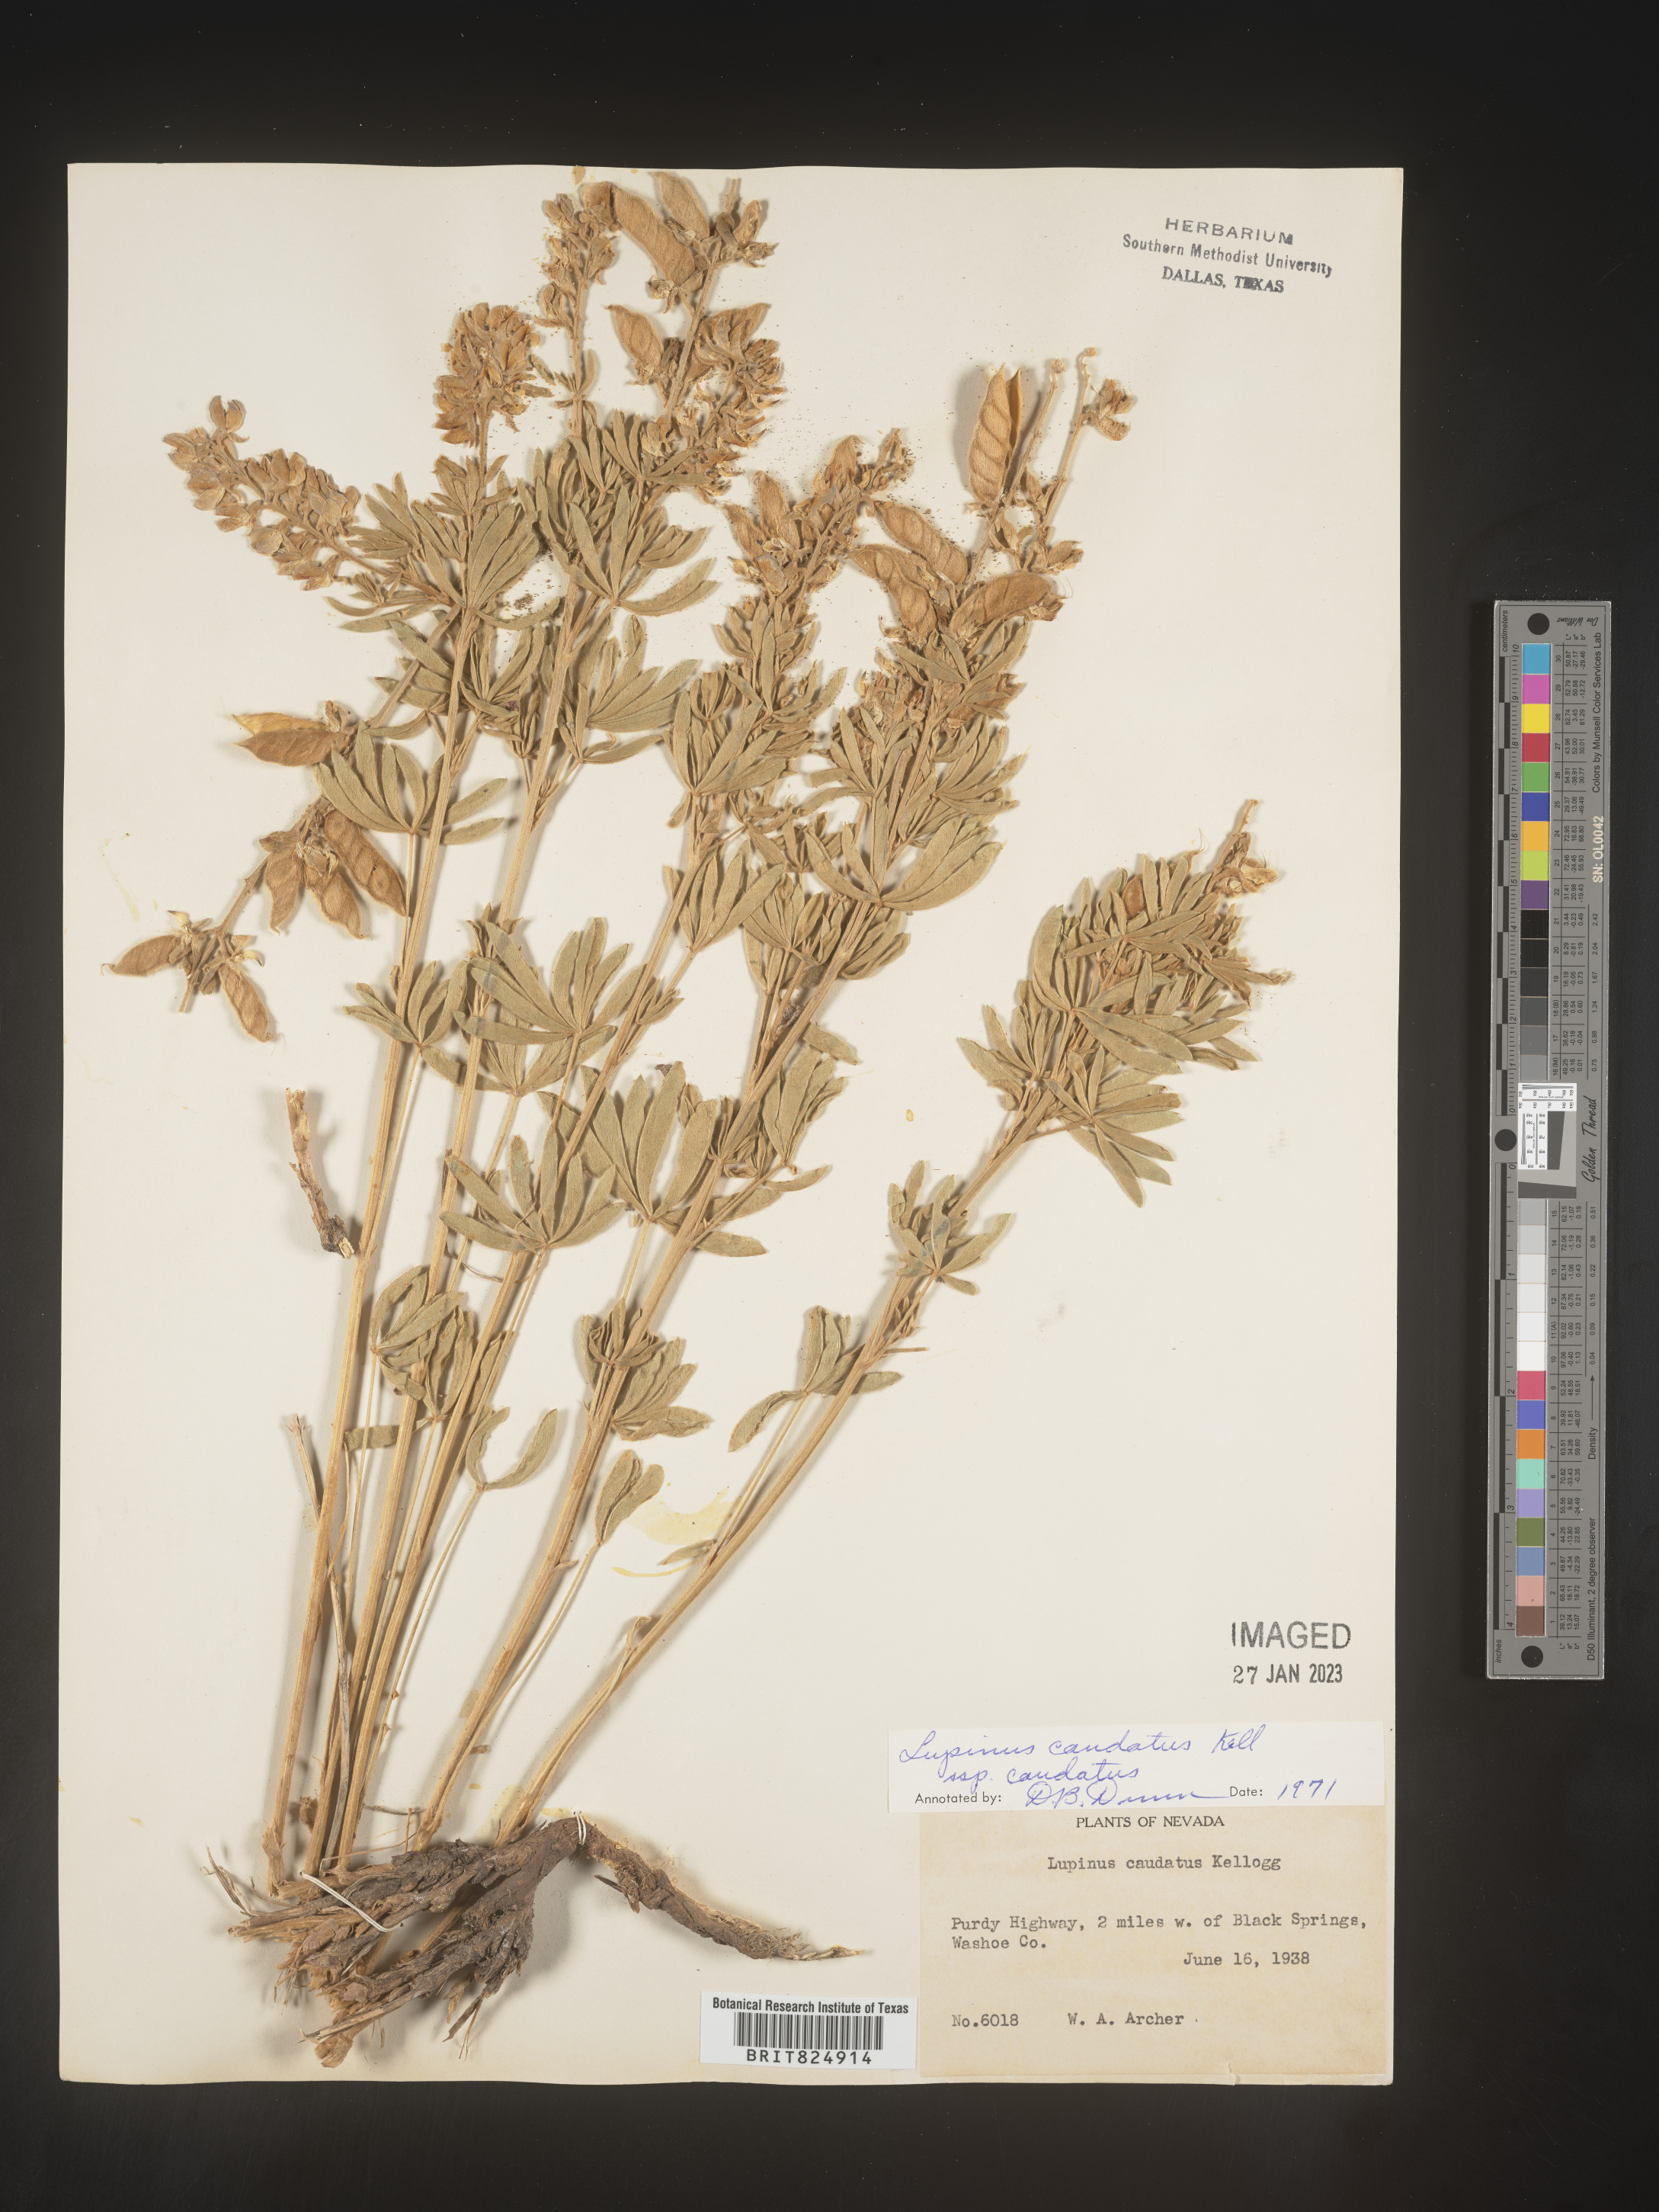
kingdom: Plantae
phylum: Tracheophyta
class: Magnoliopsida
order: Fabales
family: Fabaceae
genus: Lupinus
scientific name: Lupinus caudatus
